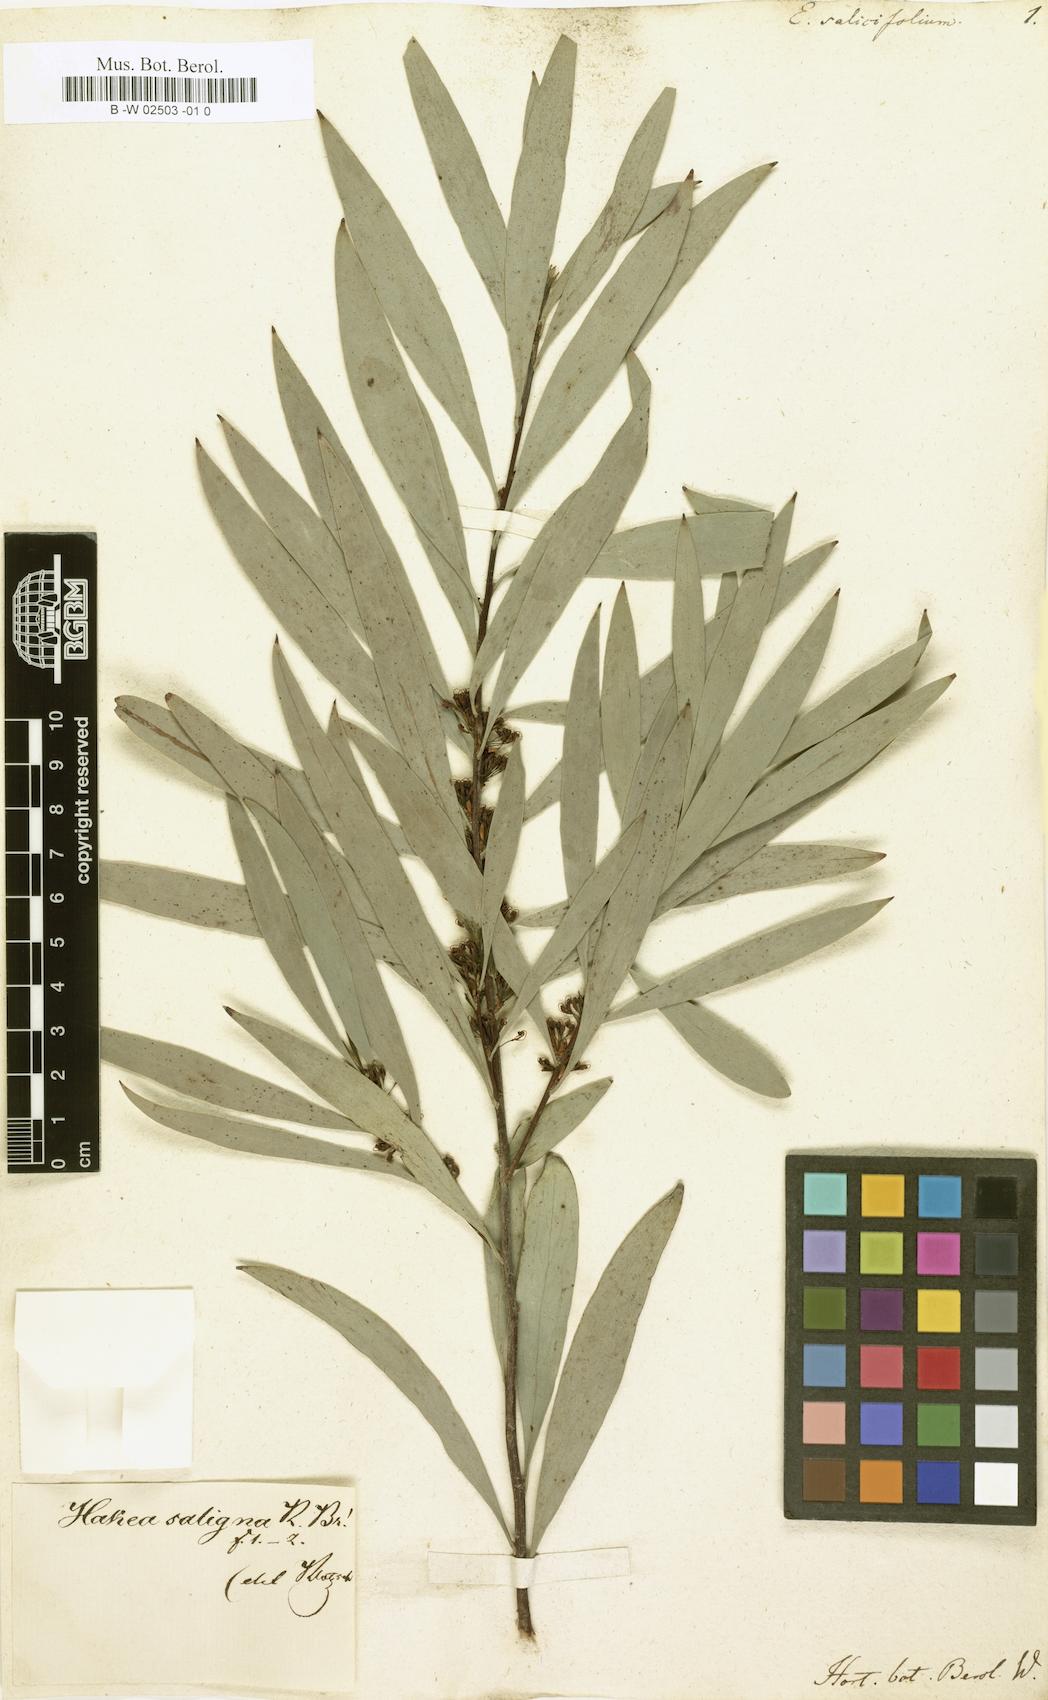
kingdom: Plantae
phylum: Tracheophyta
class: Magnoliopsida
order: Proteales
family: Proteaceae
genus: Hakea
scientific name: Hakea salicifolia
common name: Willow hakea
